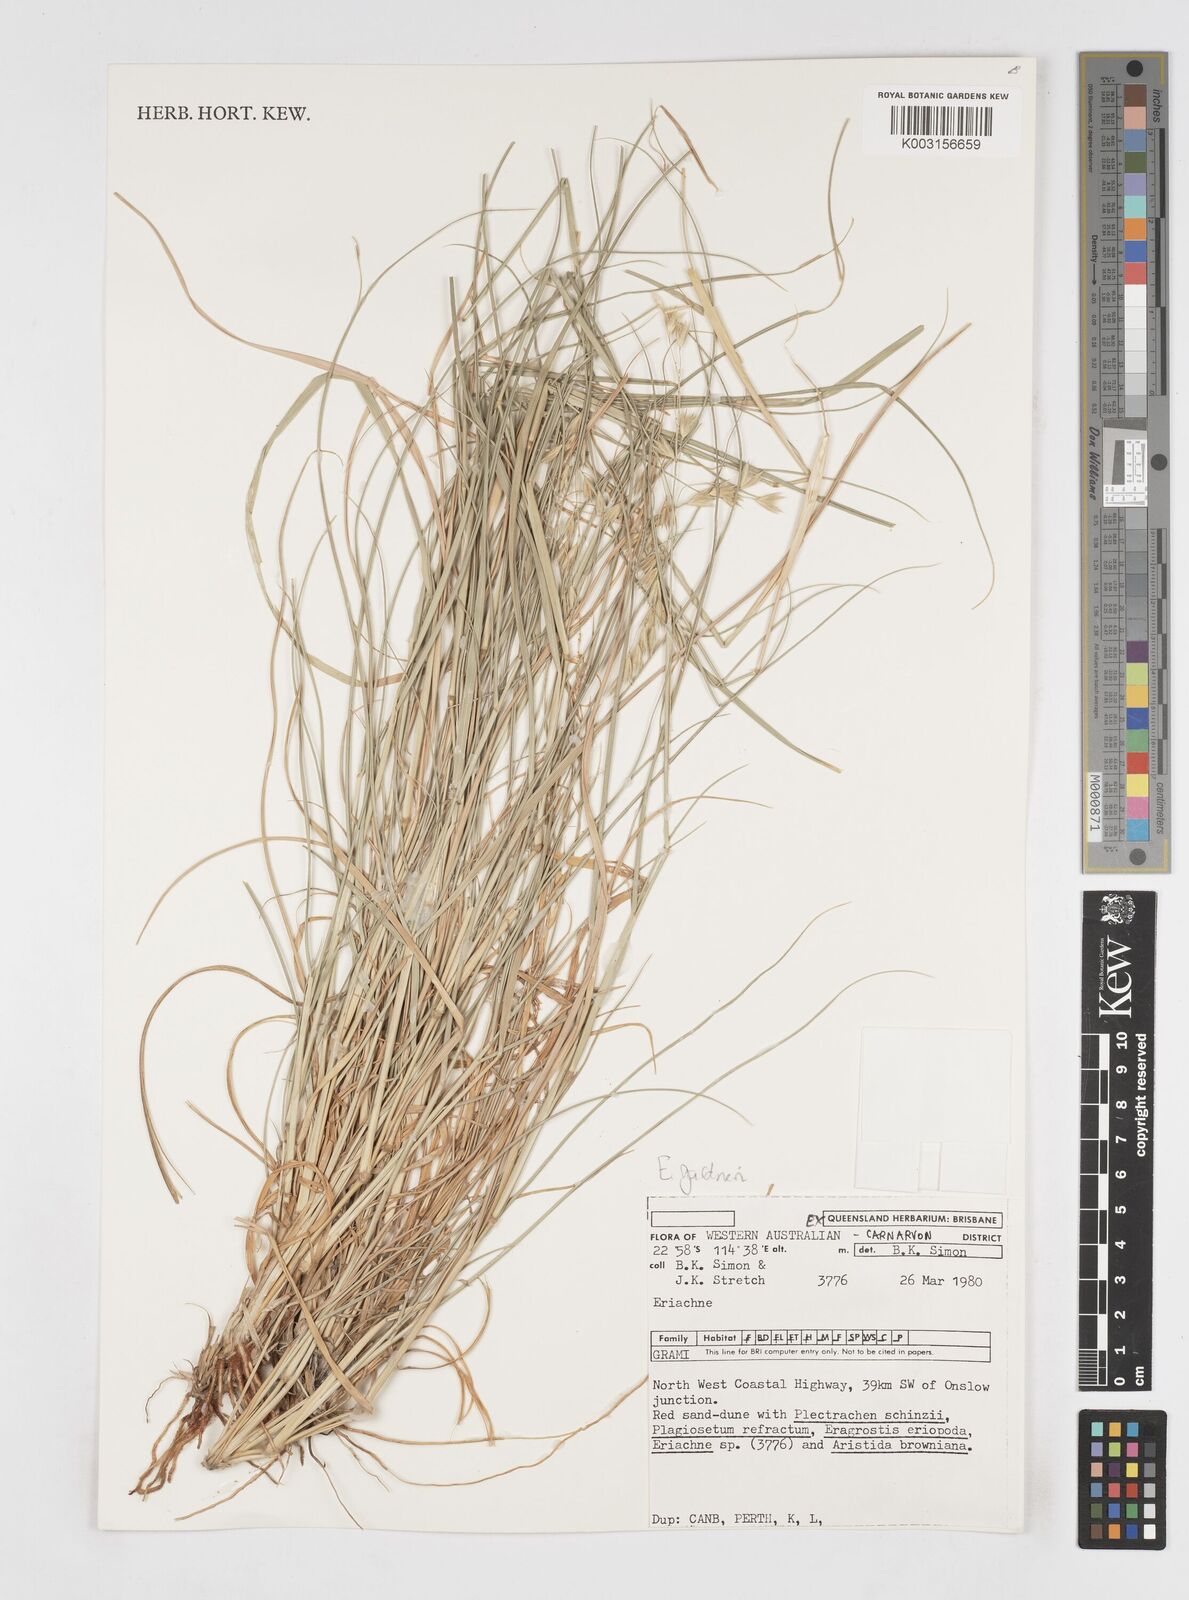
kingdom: Plantae
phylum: Tracheophyta
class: Liliopsida
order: Poales
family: Poaceae
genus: Eriachne
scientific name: Eriachne gardneri
